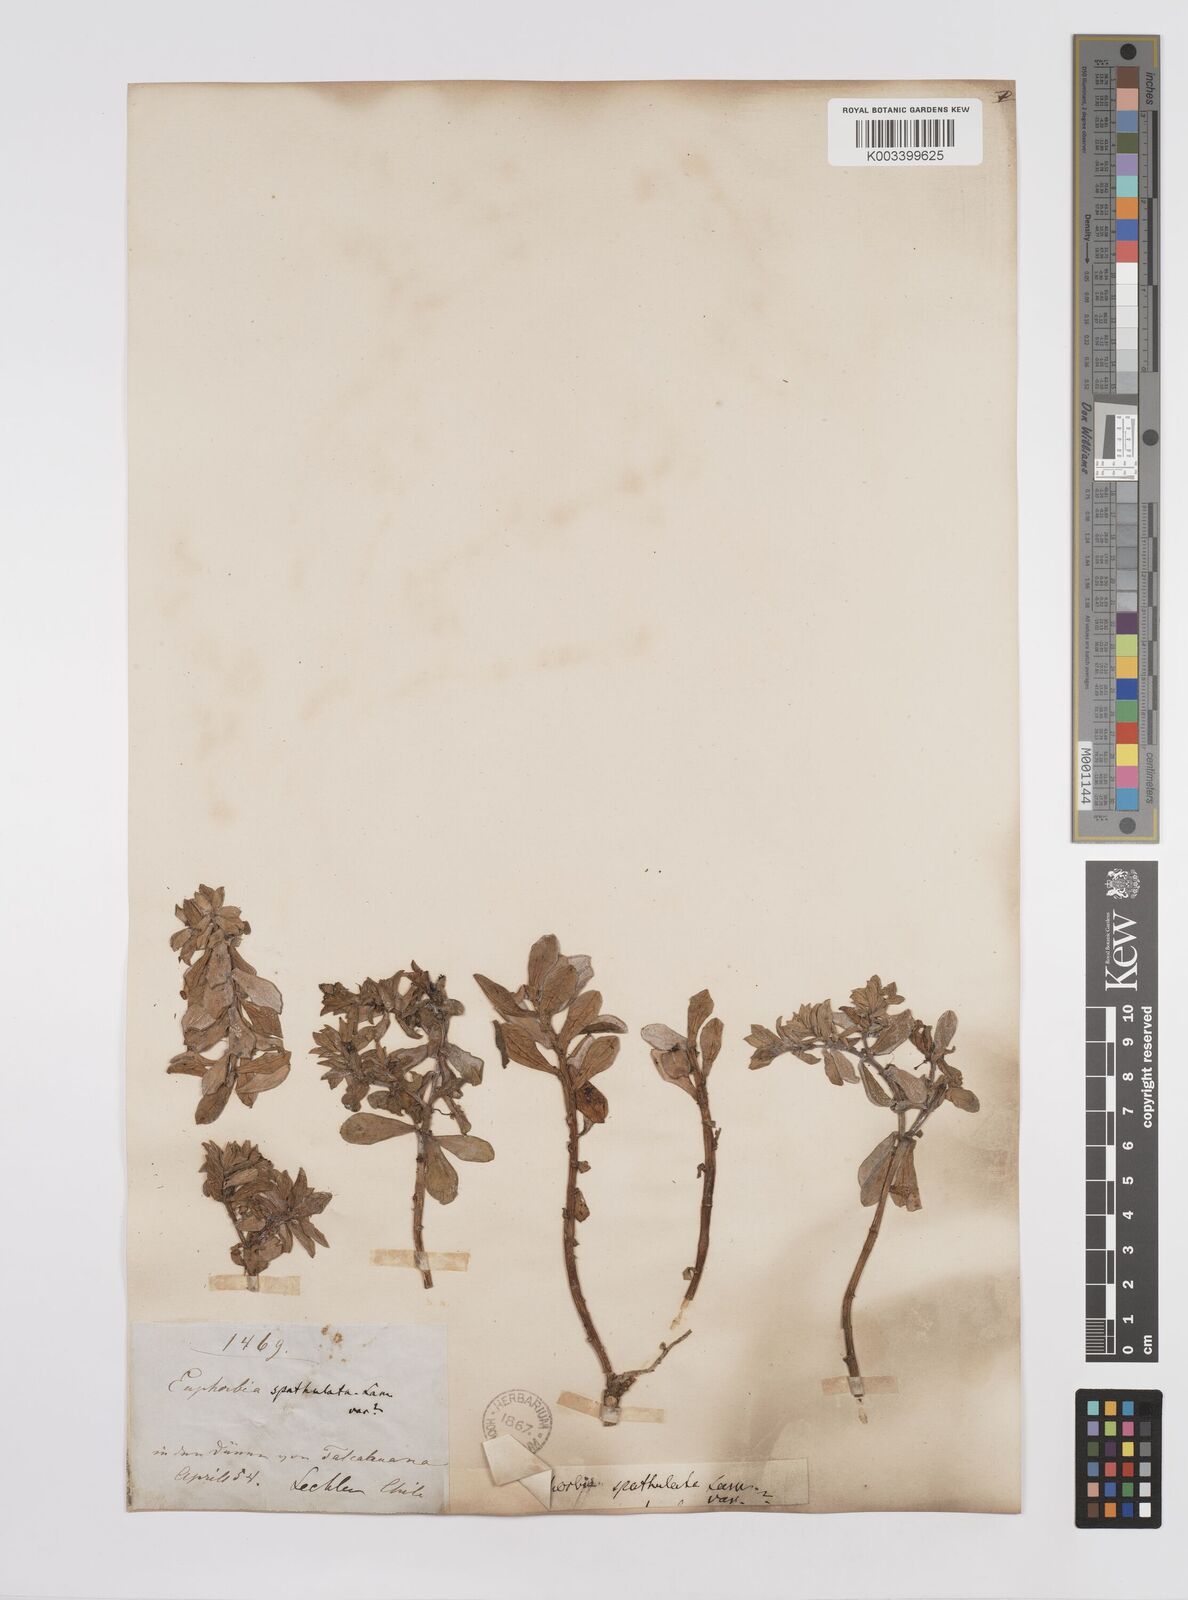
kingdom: Plantae
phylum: Tracheophyta
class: Magnoliopsida
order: Malpighiales
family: Euphorbiaceae
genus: Euphorbia
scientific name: Euphorbia portulacoides
